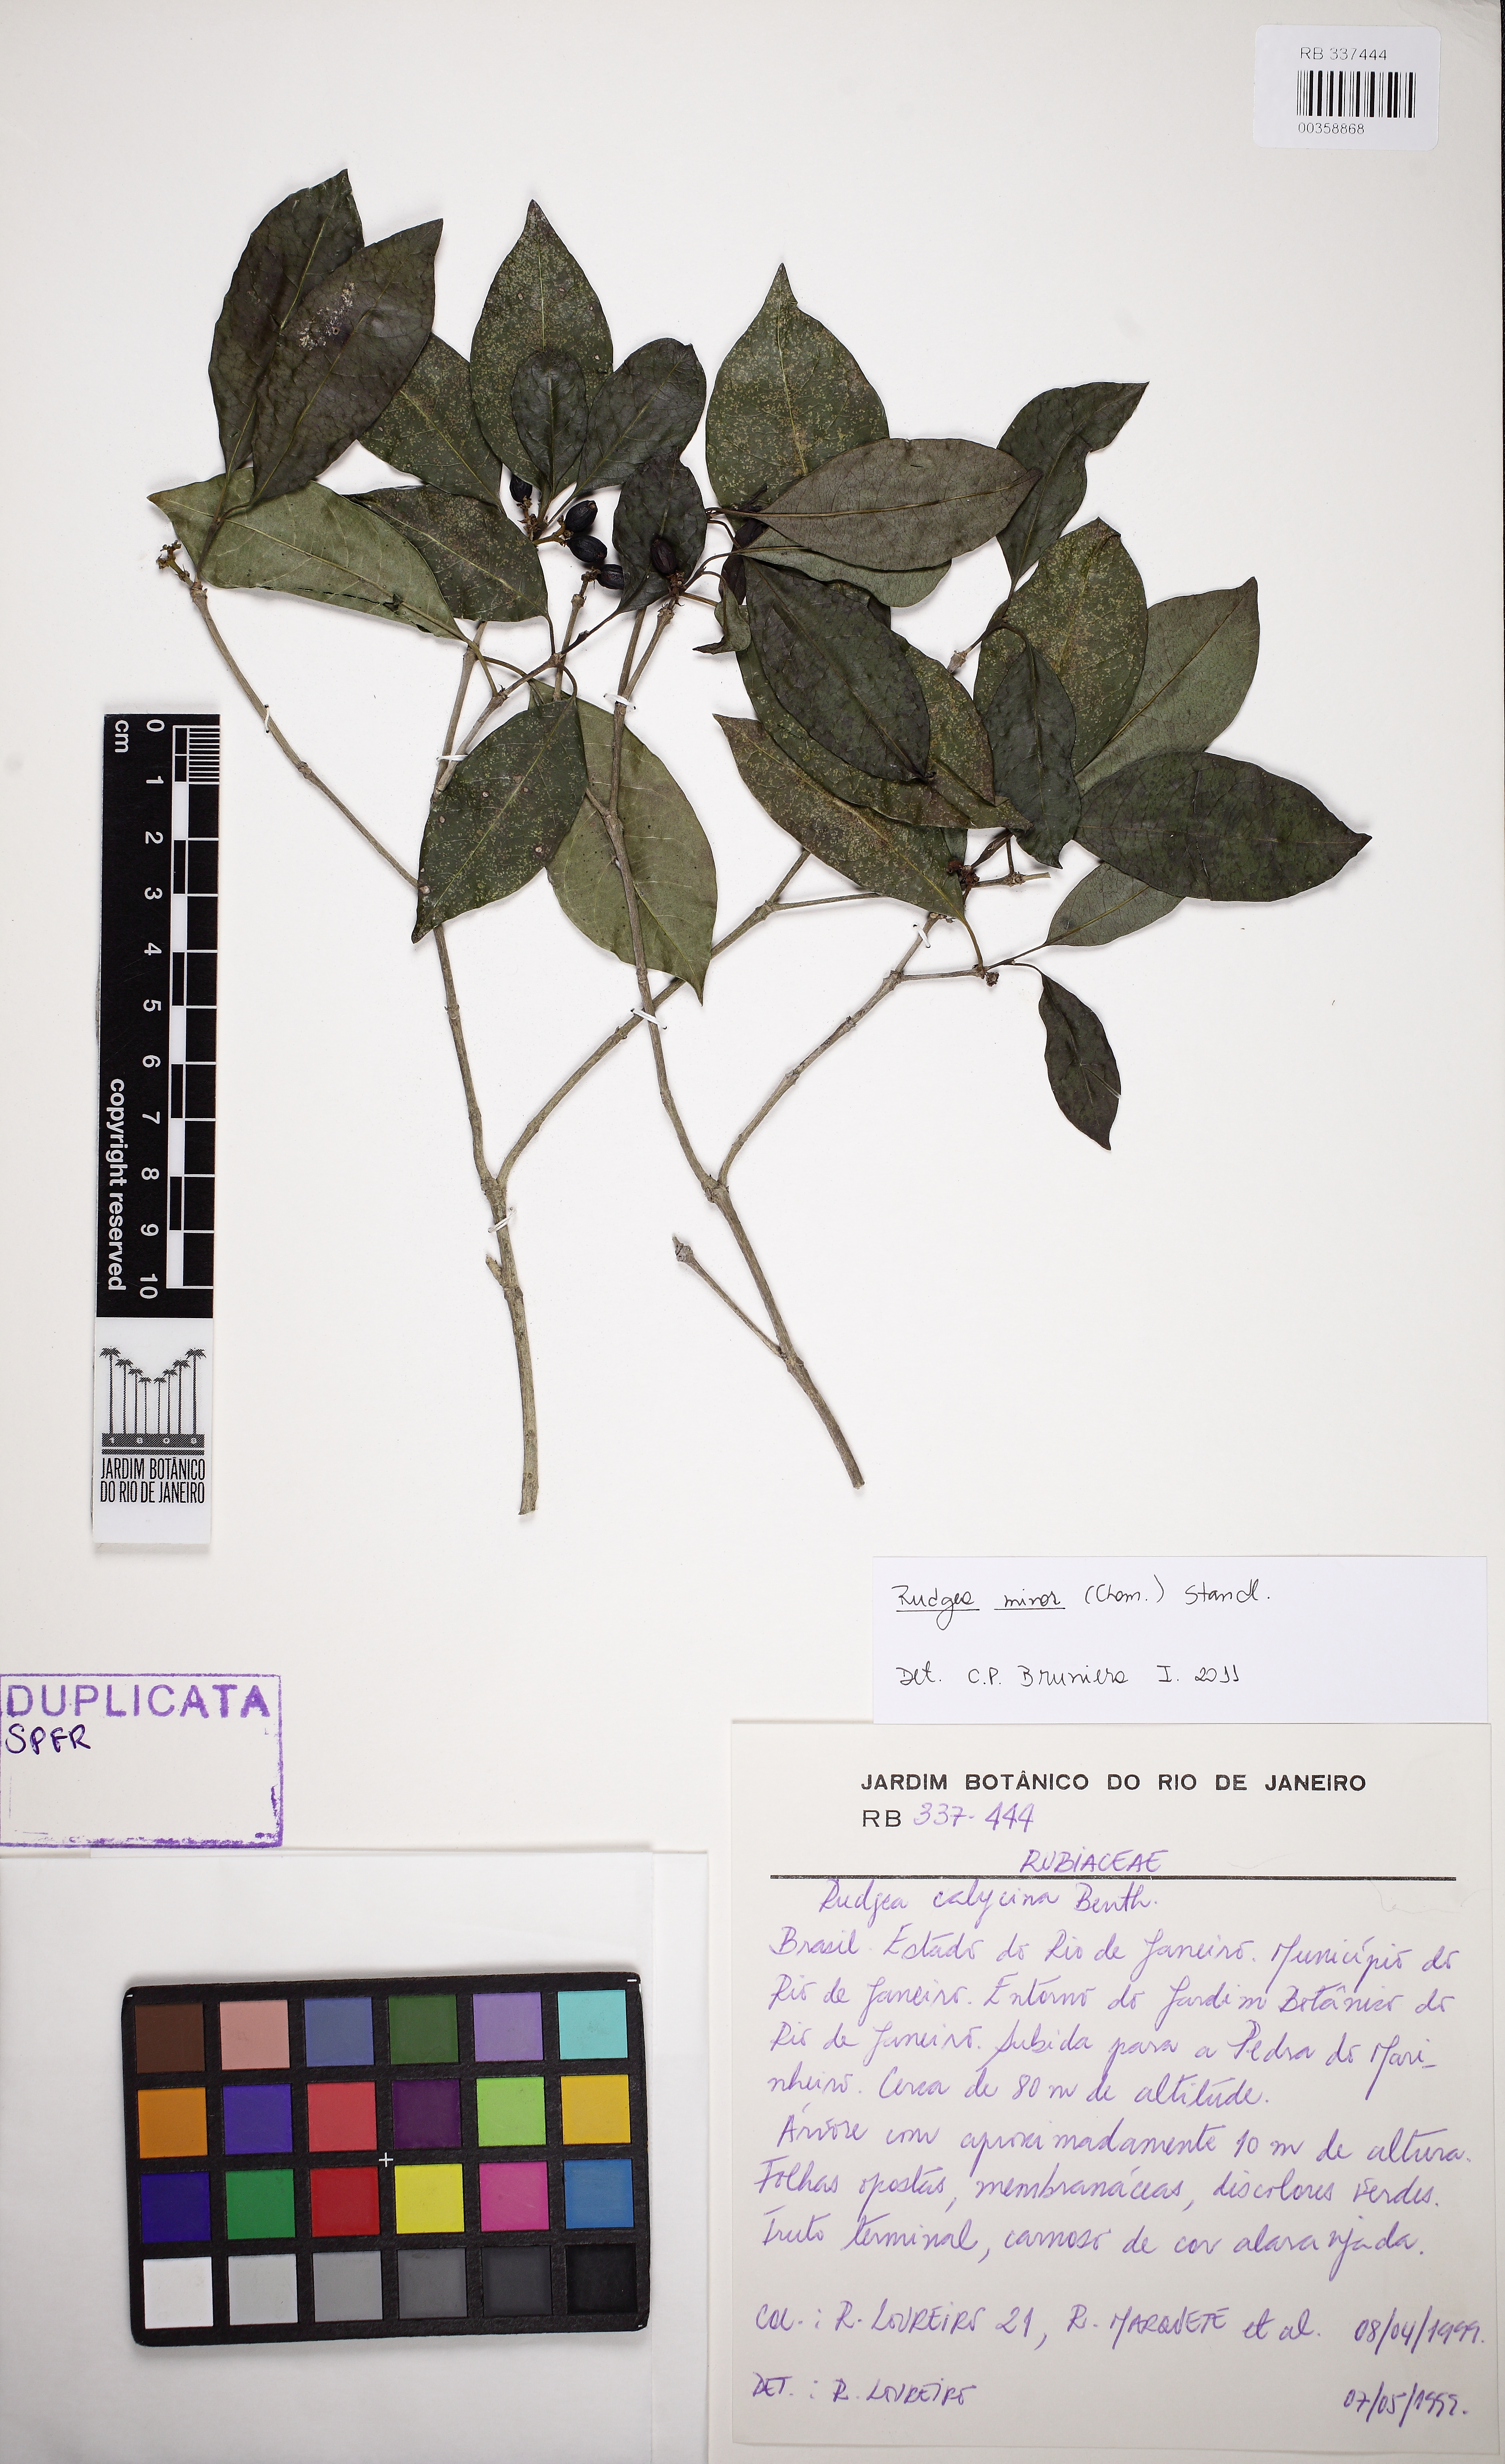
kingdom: Plantae
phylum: Tracheophyta
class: Magnoliopsida
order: Gentianales
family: Rubiaceae
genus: Rudgea
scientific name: Rudgea minor
